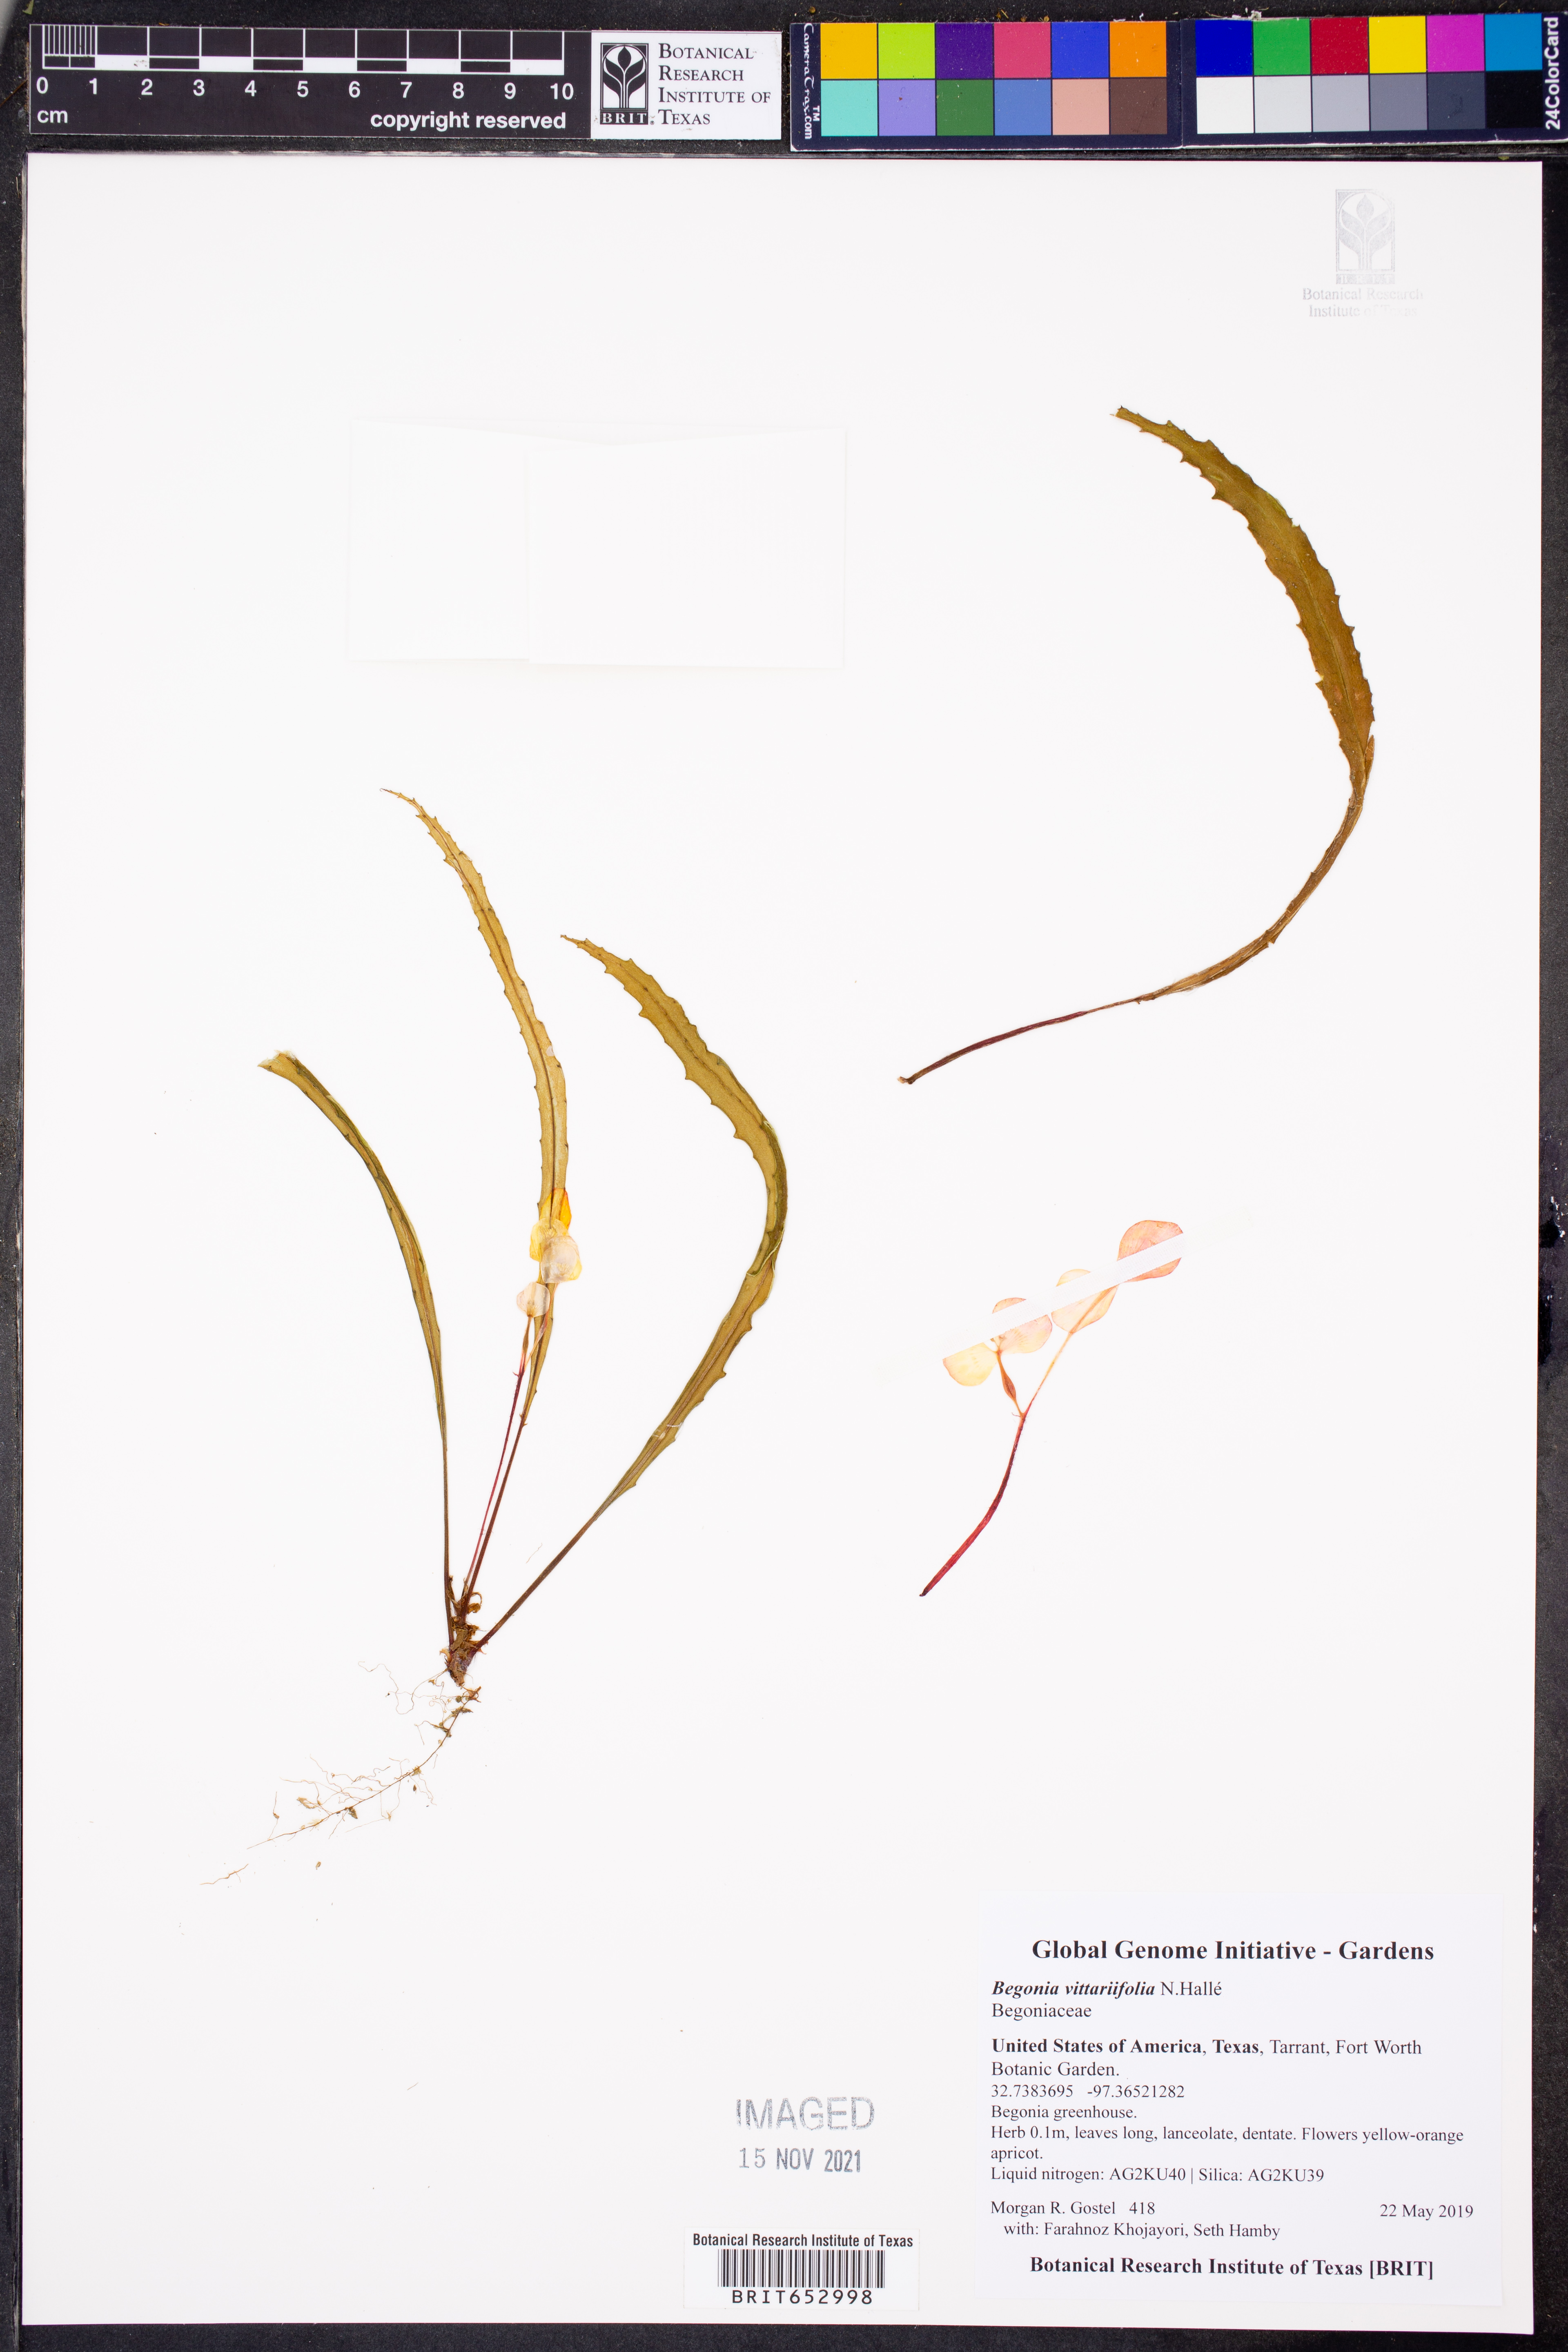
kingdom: Plantae
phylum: Tracheophyta
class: Magnoliopsida
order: Cucurbitales
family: Begoniaceae
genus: Begonia
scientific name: Begonia vittariifolia
